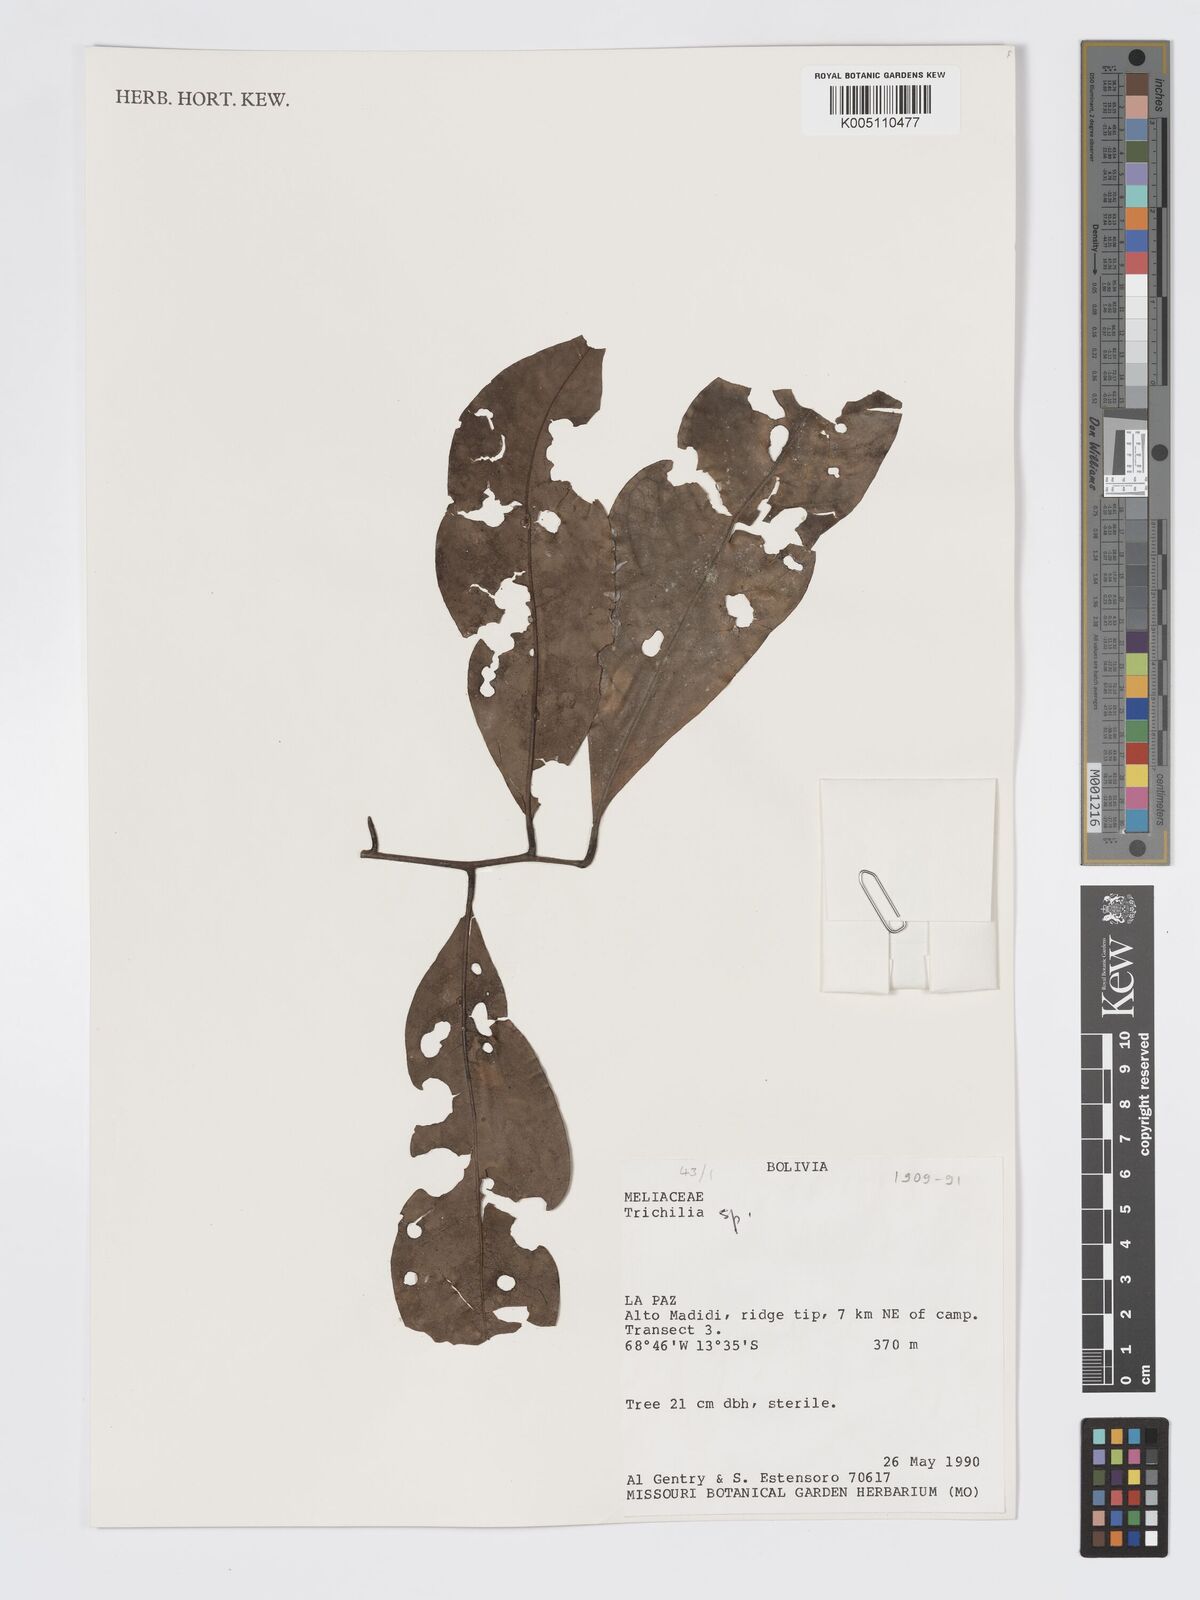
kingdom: Plantae
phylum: Tracheophyta
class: Magnoliopsida
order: Sapindales
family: Meliaceae
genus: Trichilia
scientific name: Trichilia
